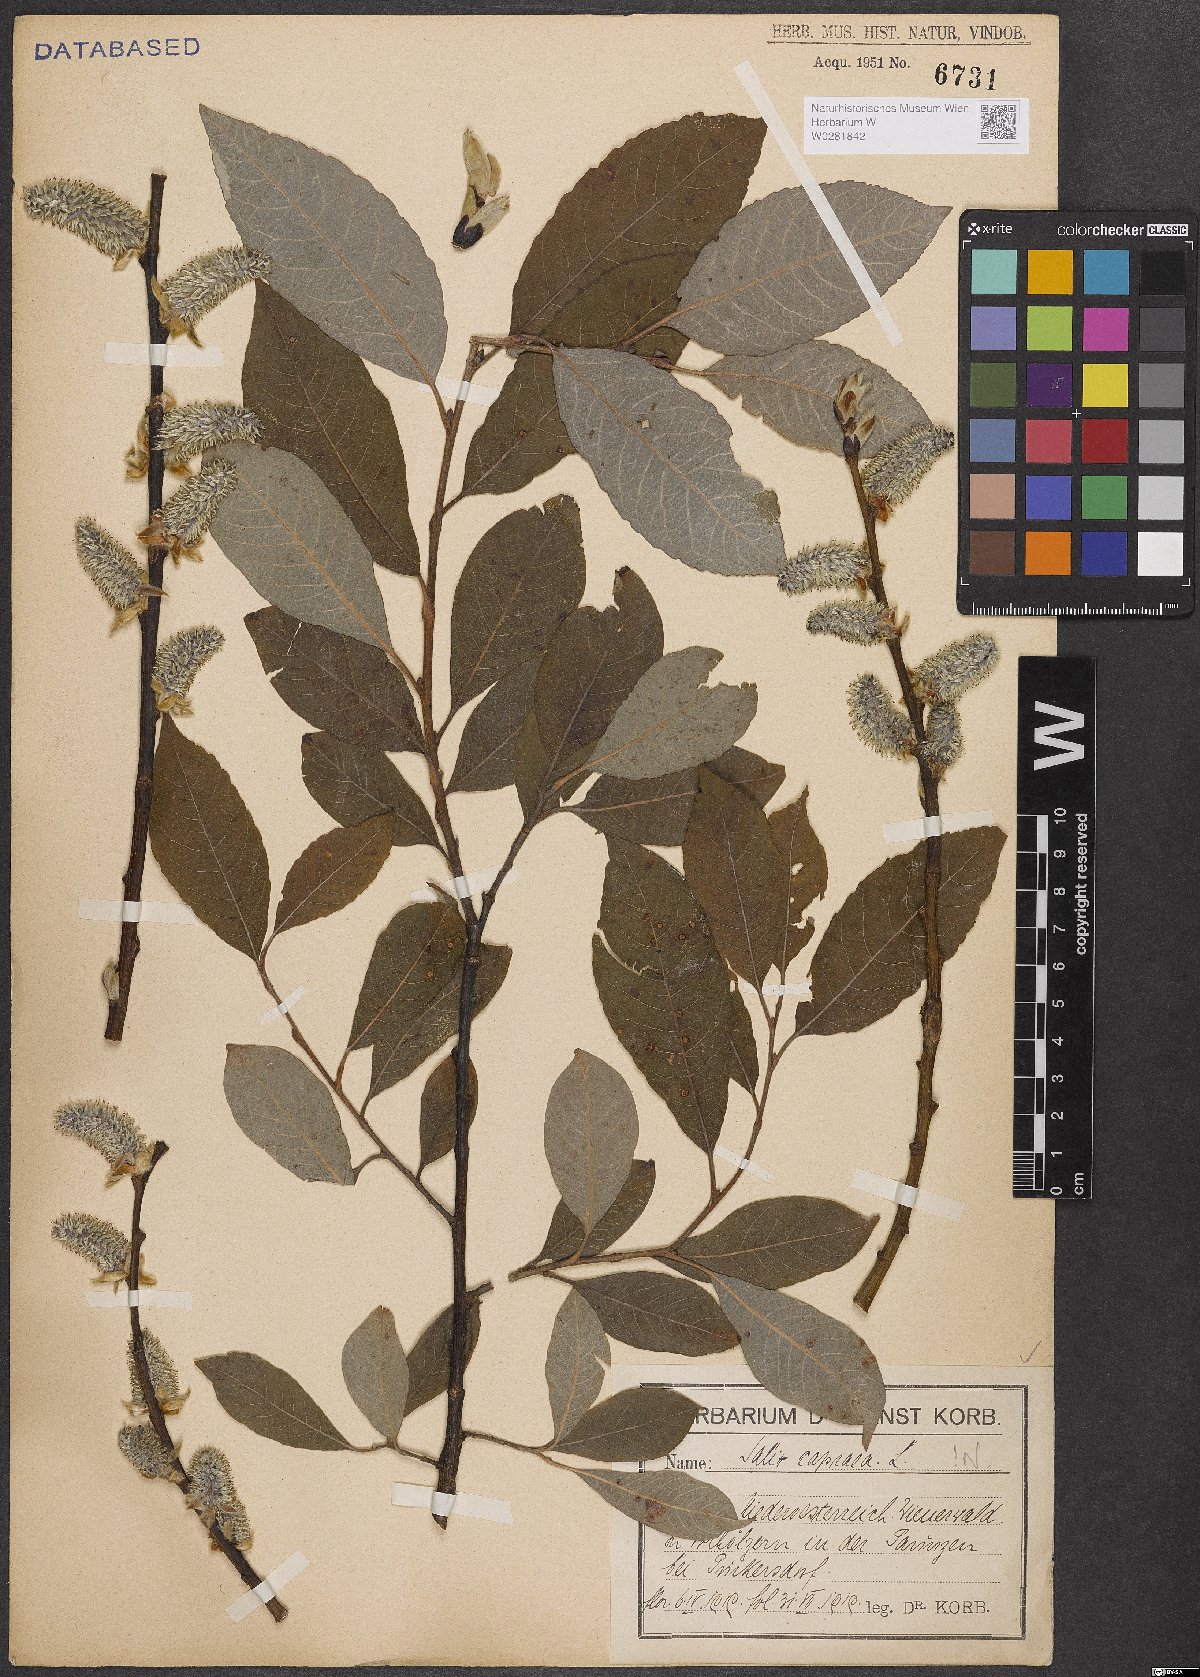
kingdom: Plantae
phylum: Tracheophyta
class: Magnoliopsida
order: Malpighiales
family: Salicaceae
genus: Salix
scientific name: Salix caprea
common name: Goat willow
